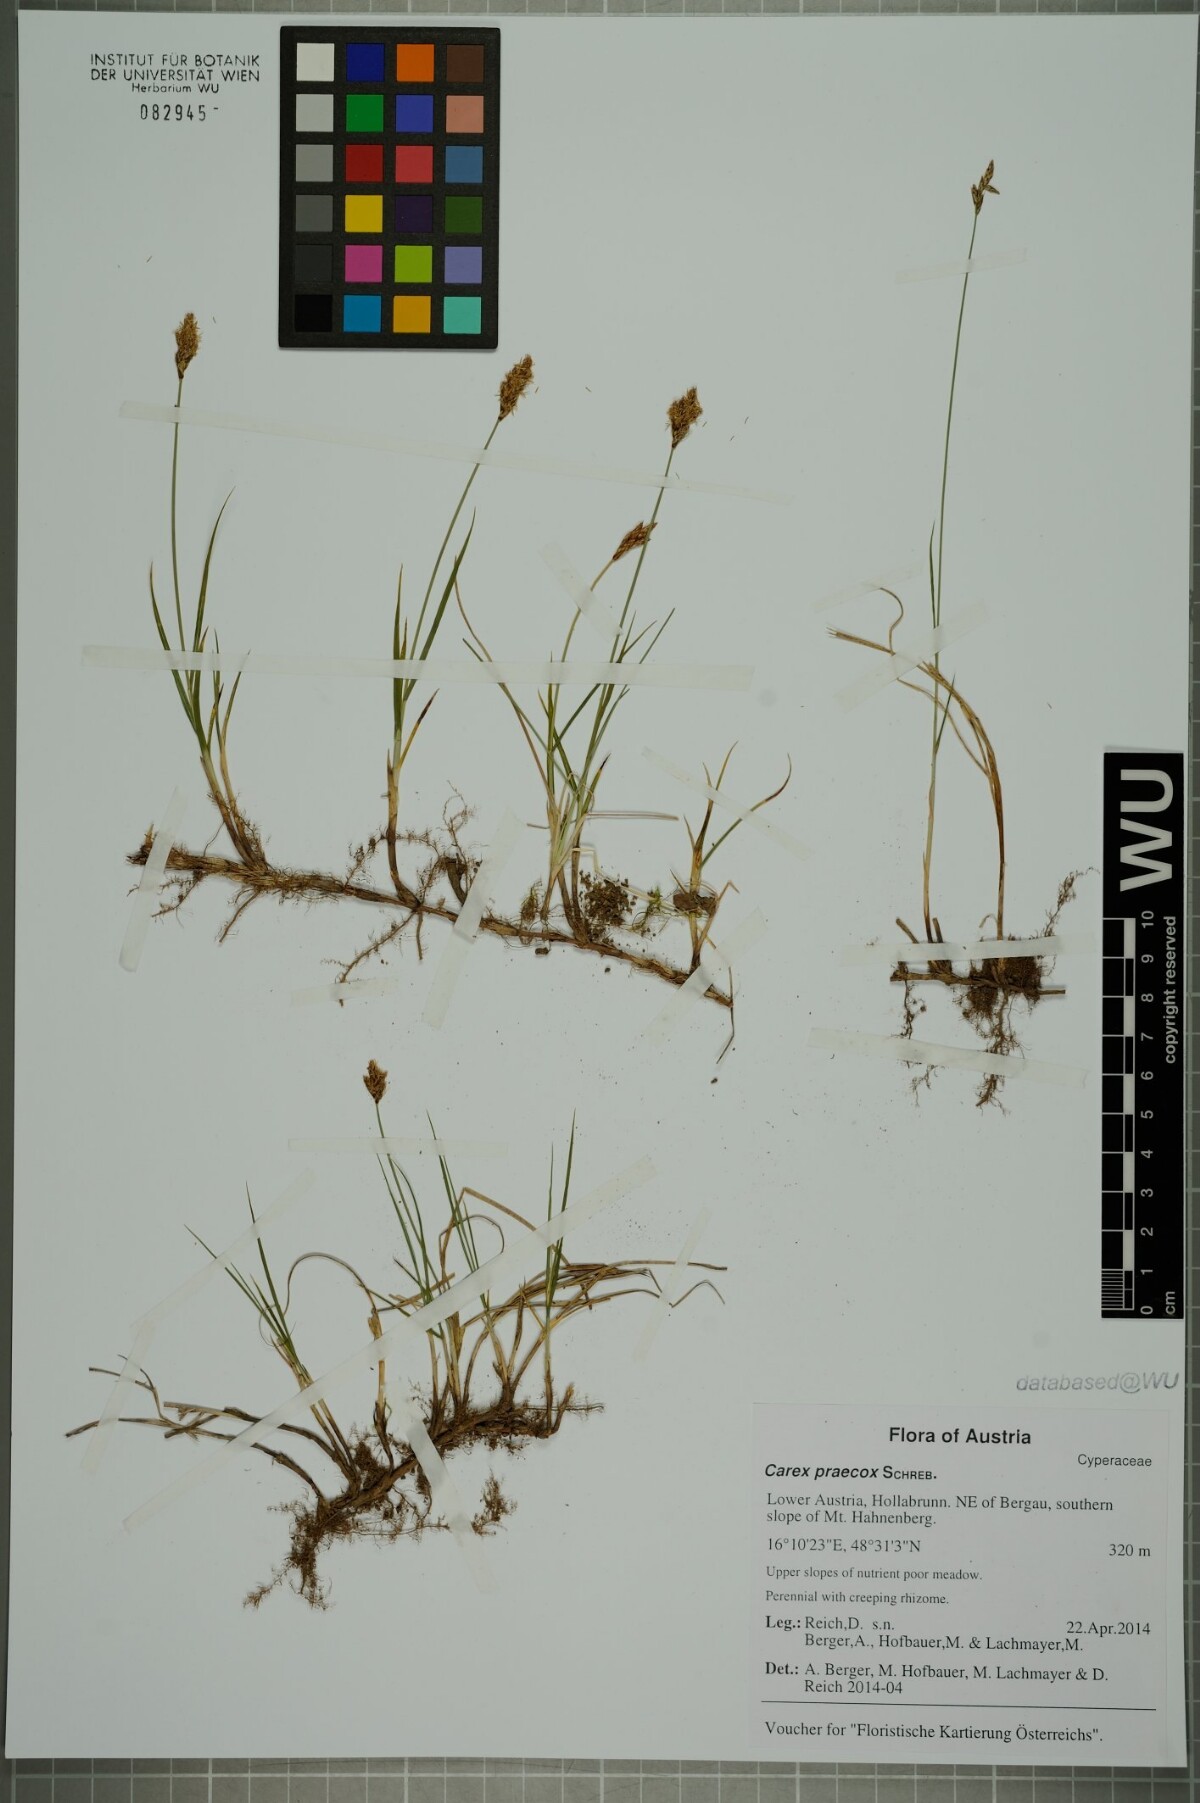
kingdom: Plantae
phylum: Tracheophyta
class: Liliopsida
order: Poales
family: Cyperaceae
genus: Carex
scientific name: Carex praecox
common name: Early sedge
